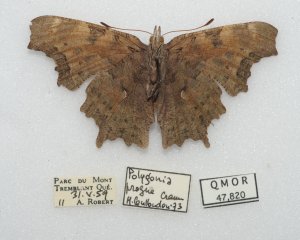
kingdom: Animalia
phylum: Arthropoda
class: Insecta
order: Lepidoptera
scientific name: Lepidoptera
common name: Butterflies
